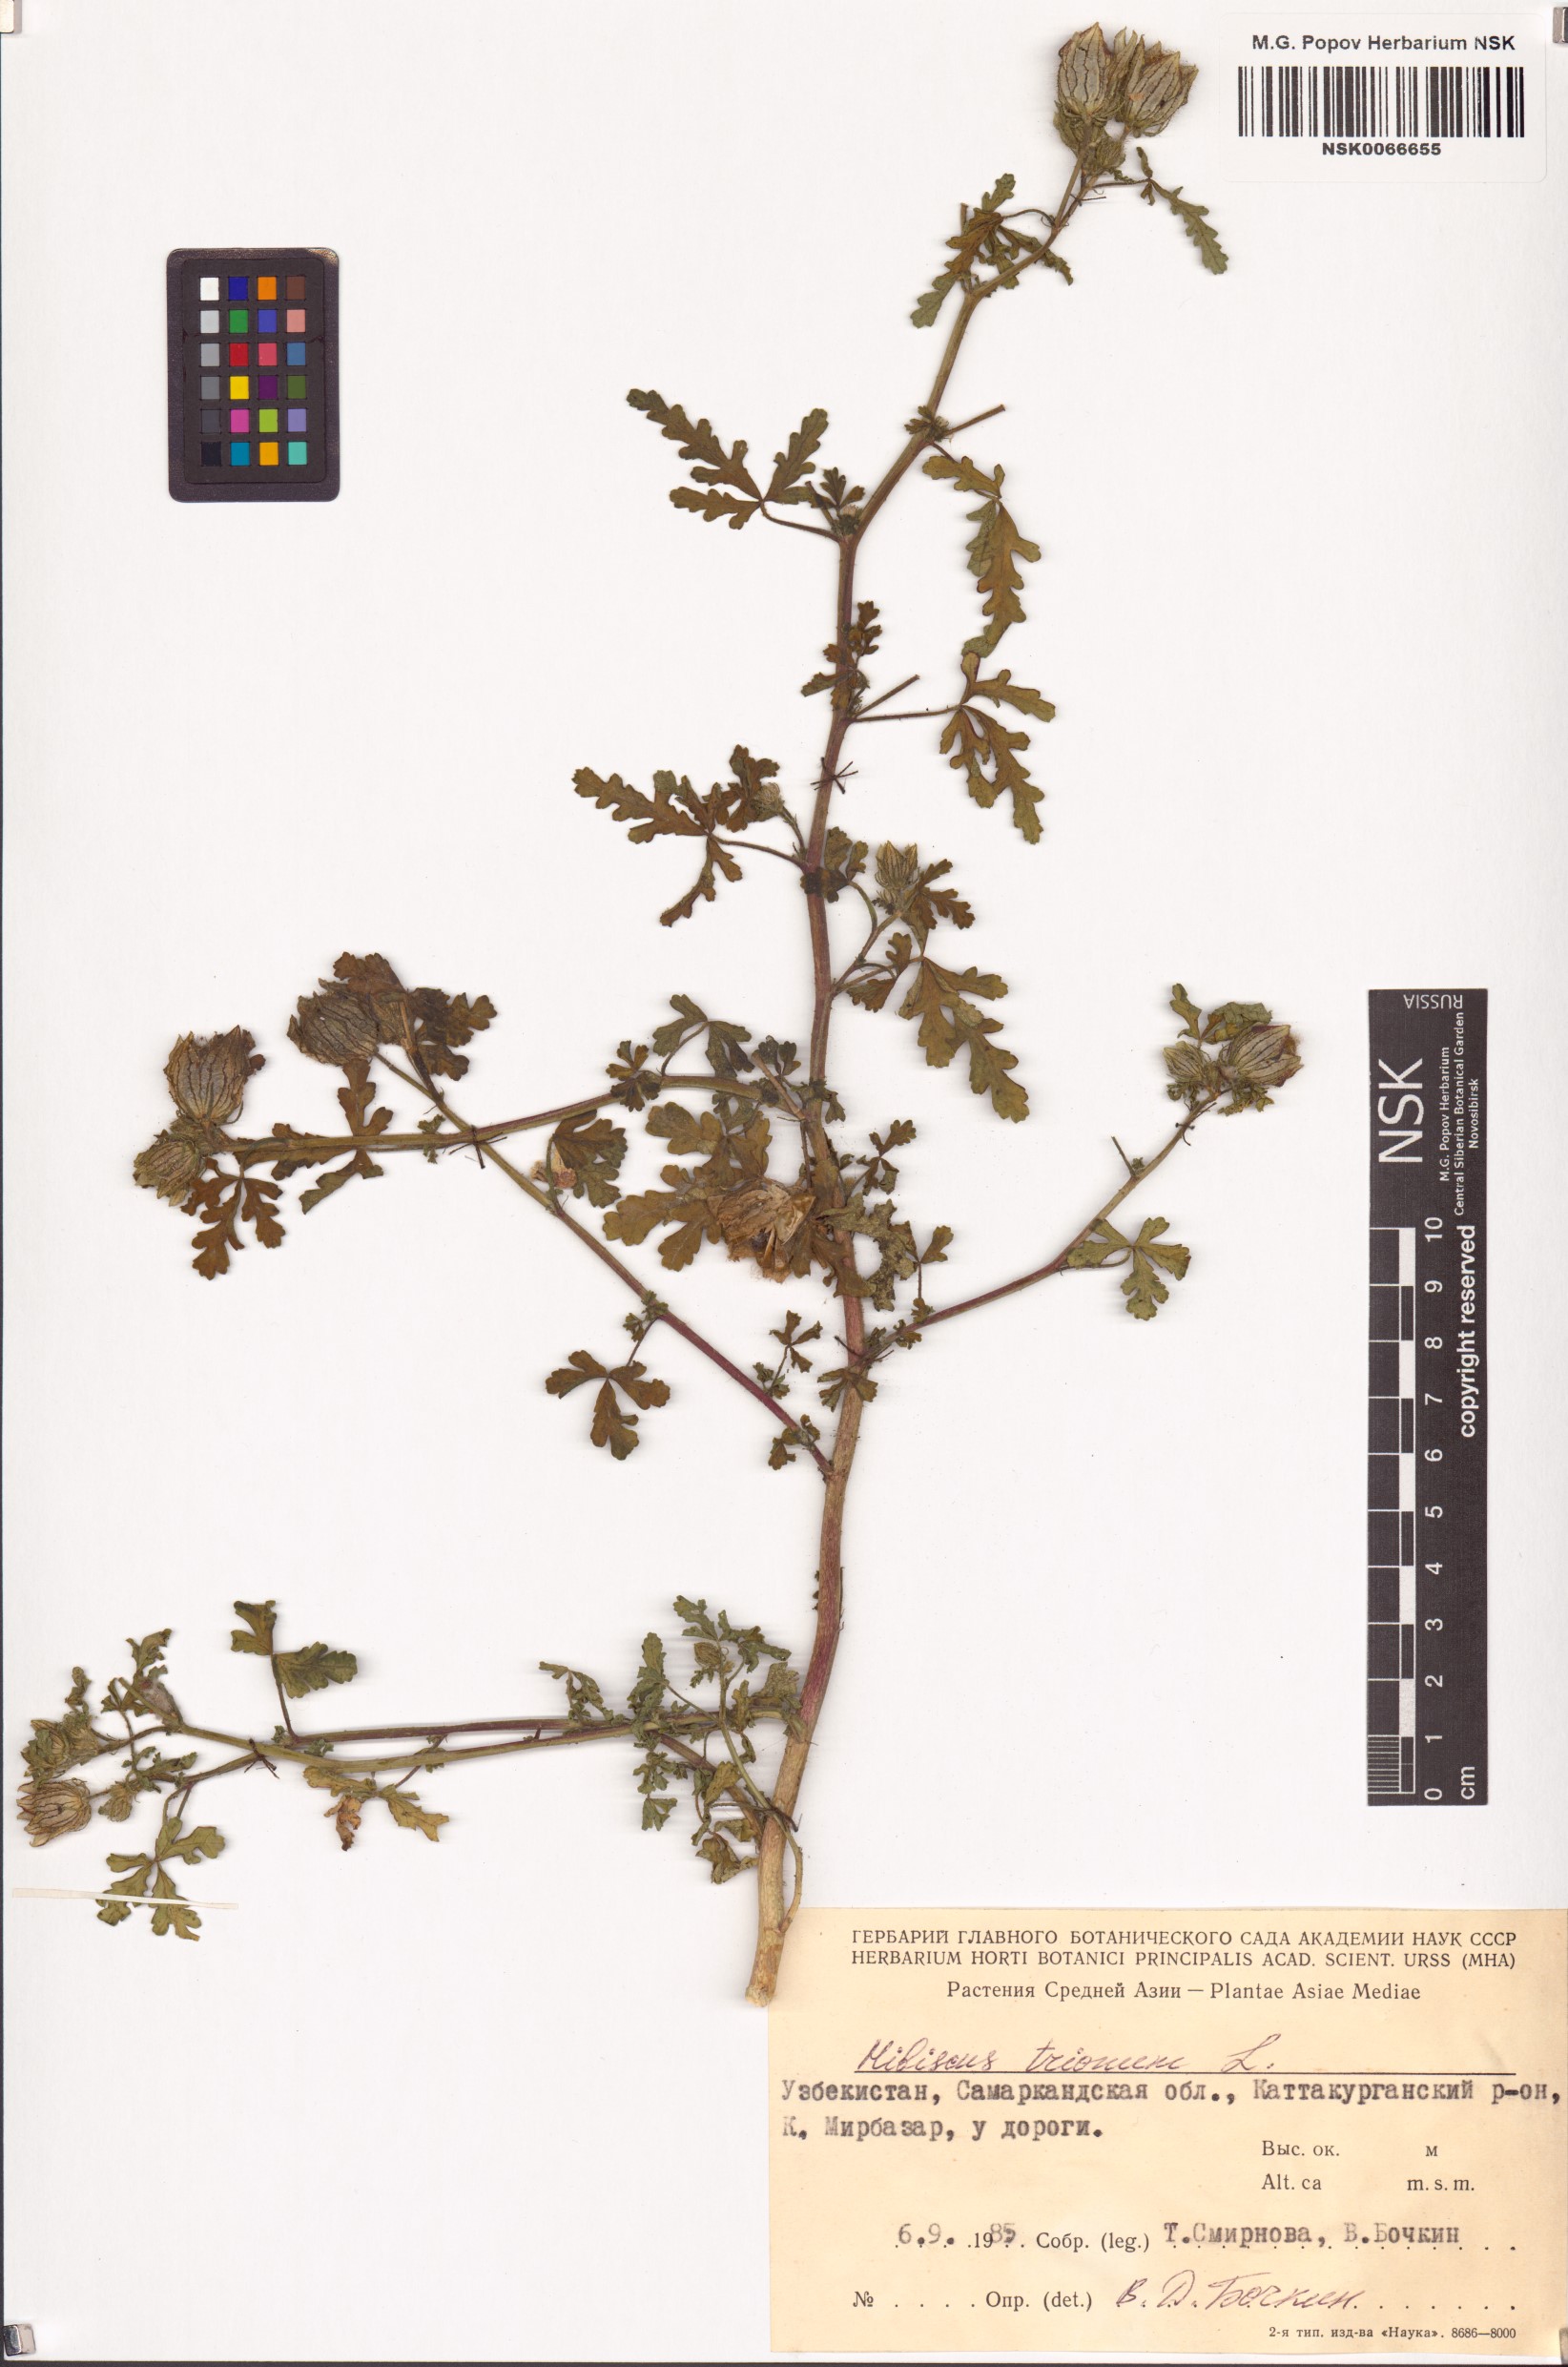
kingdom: Plantae
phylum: Tracheophyta
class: Magnoliopsida
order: Malvales
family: Malvaceae
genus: Hibiscus
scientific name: Hibiscus trionum
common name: Bladder ketmia
